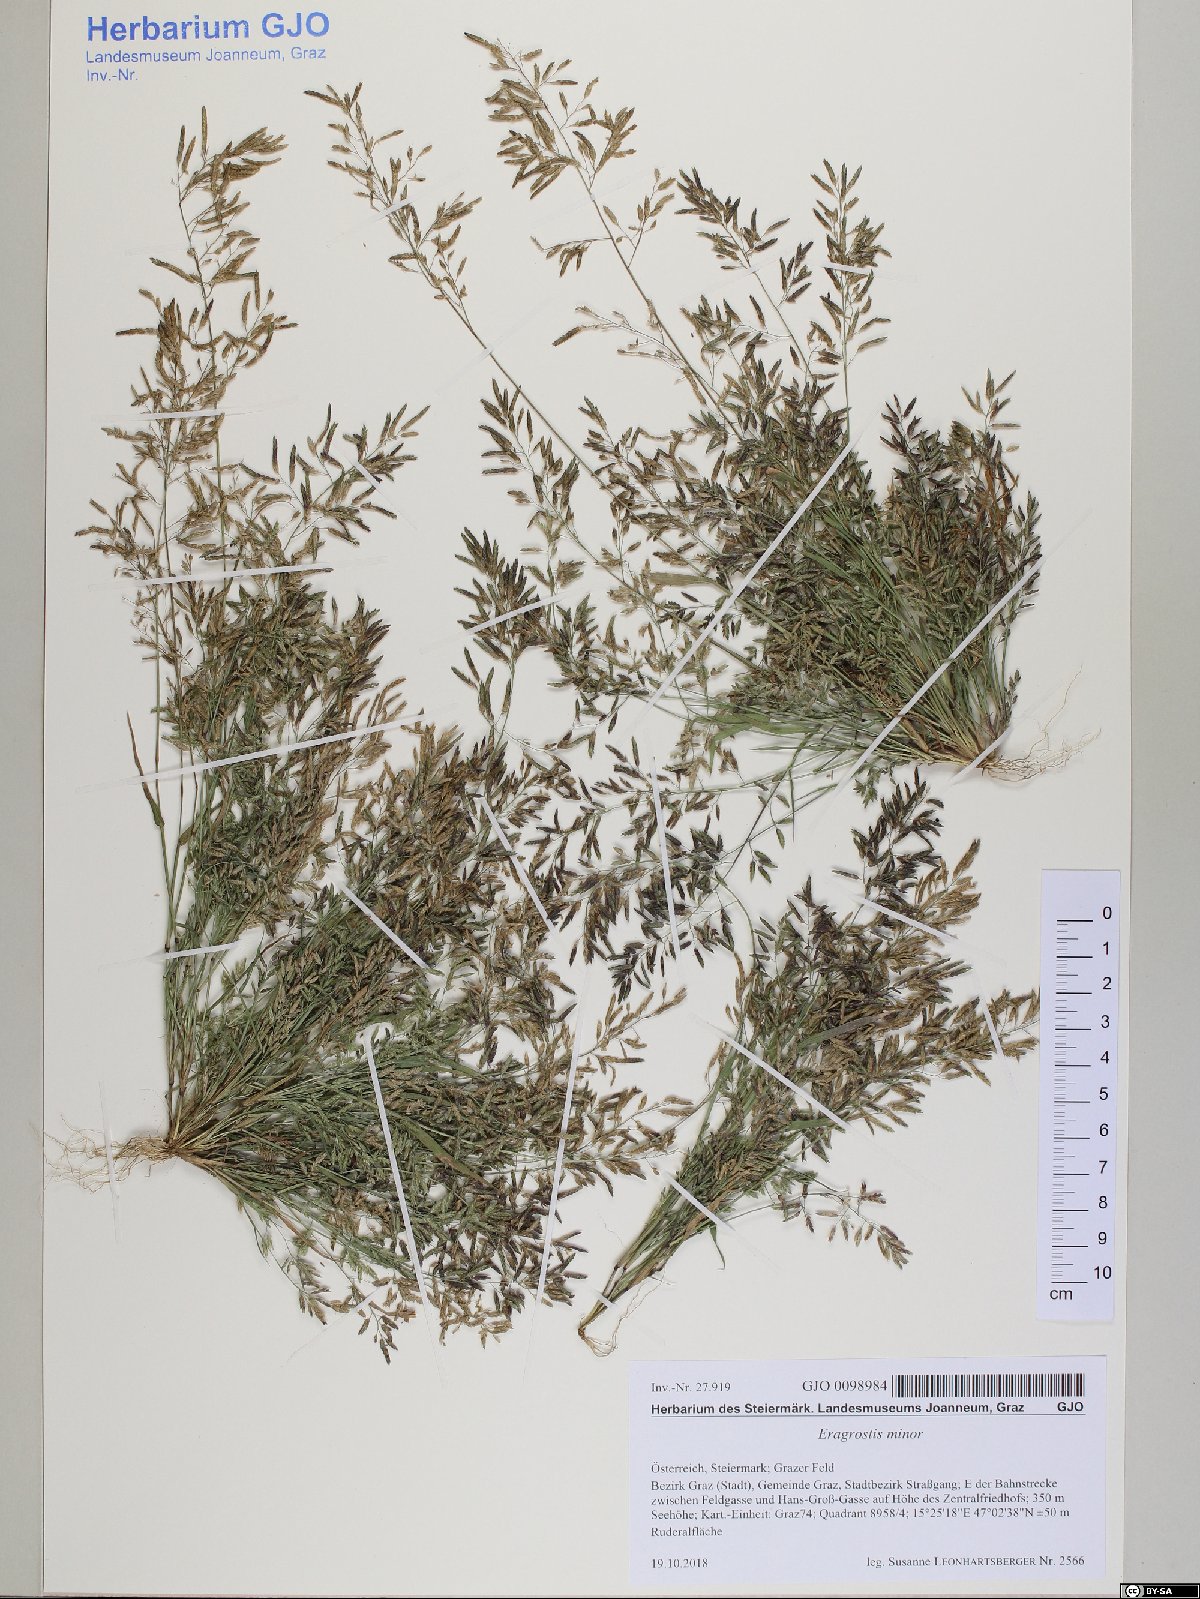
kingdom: Plantae
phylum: Tracheophyta
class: Liliopsida
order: Poales
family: Poaceae
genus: Eragrostis
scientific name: Eragrostis minor
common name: Small love-grass
